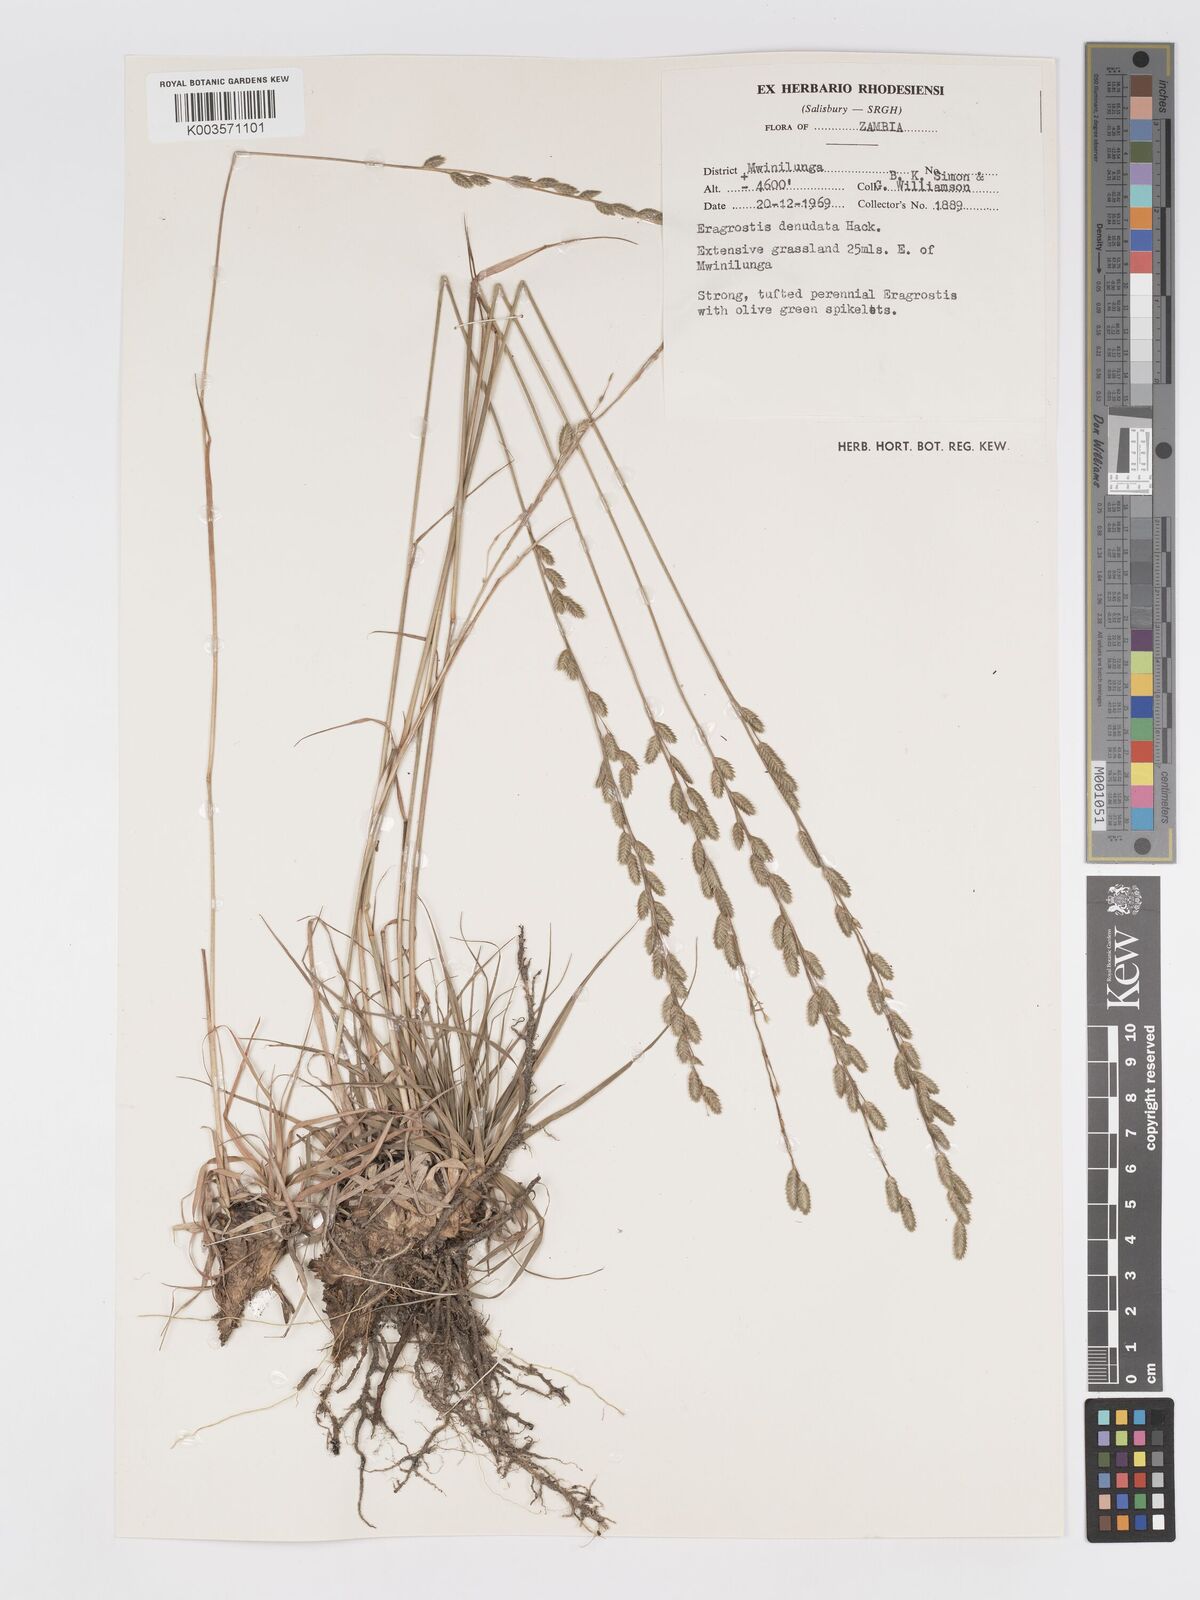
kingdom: Plantae
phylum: Tracheophyta
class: Liliopsida
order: Poales
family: Poaceae
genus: Eragrostis
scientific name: Eragrostis nindensis
